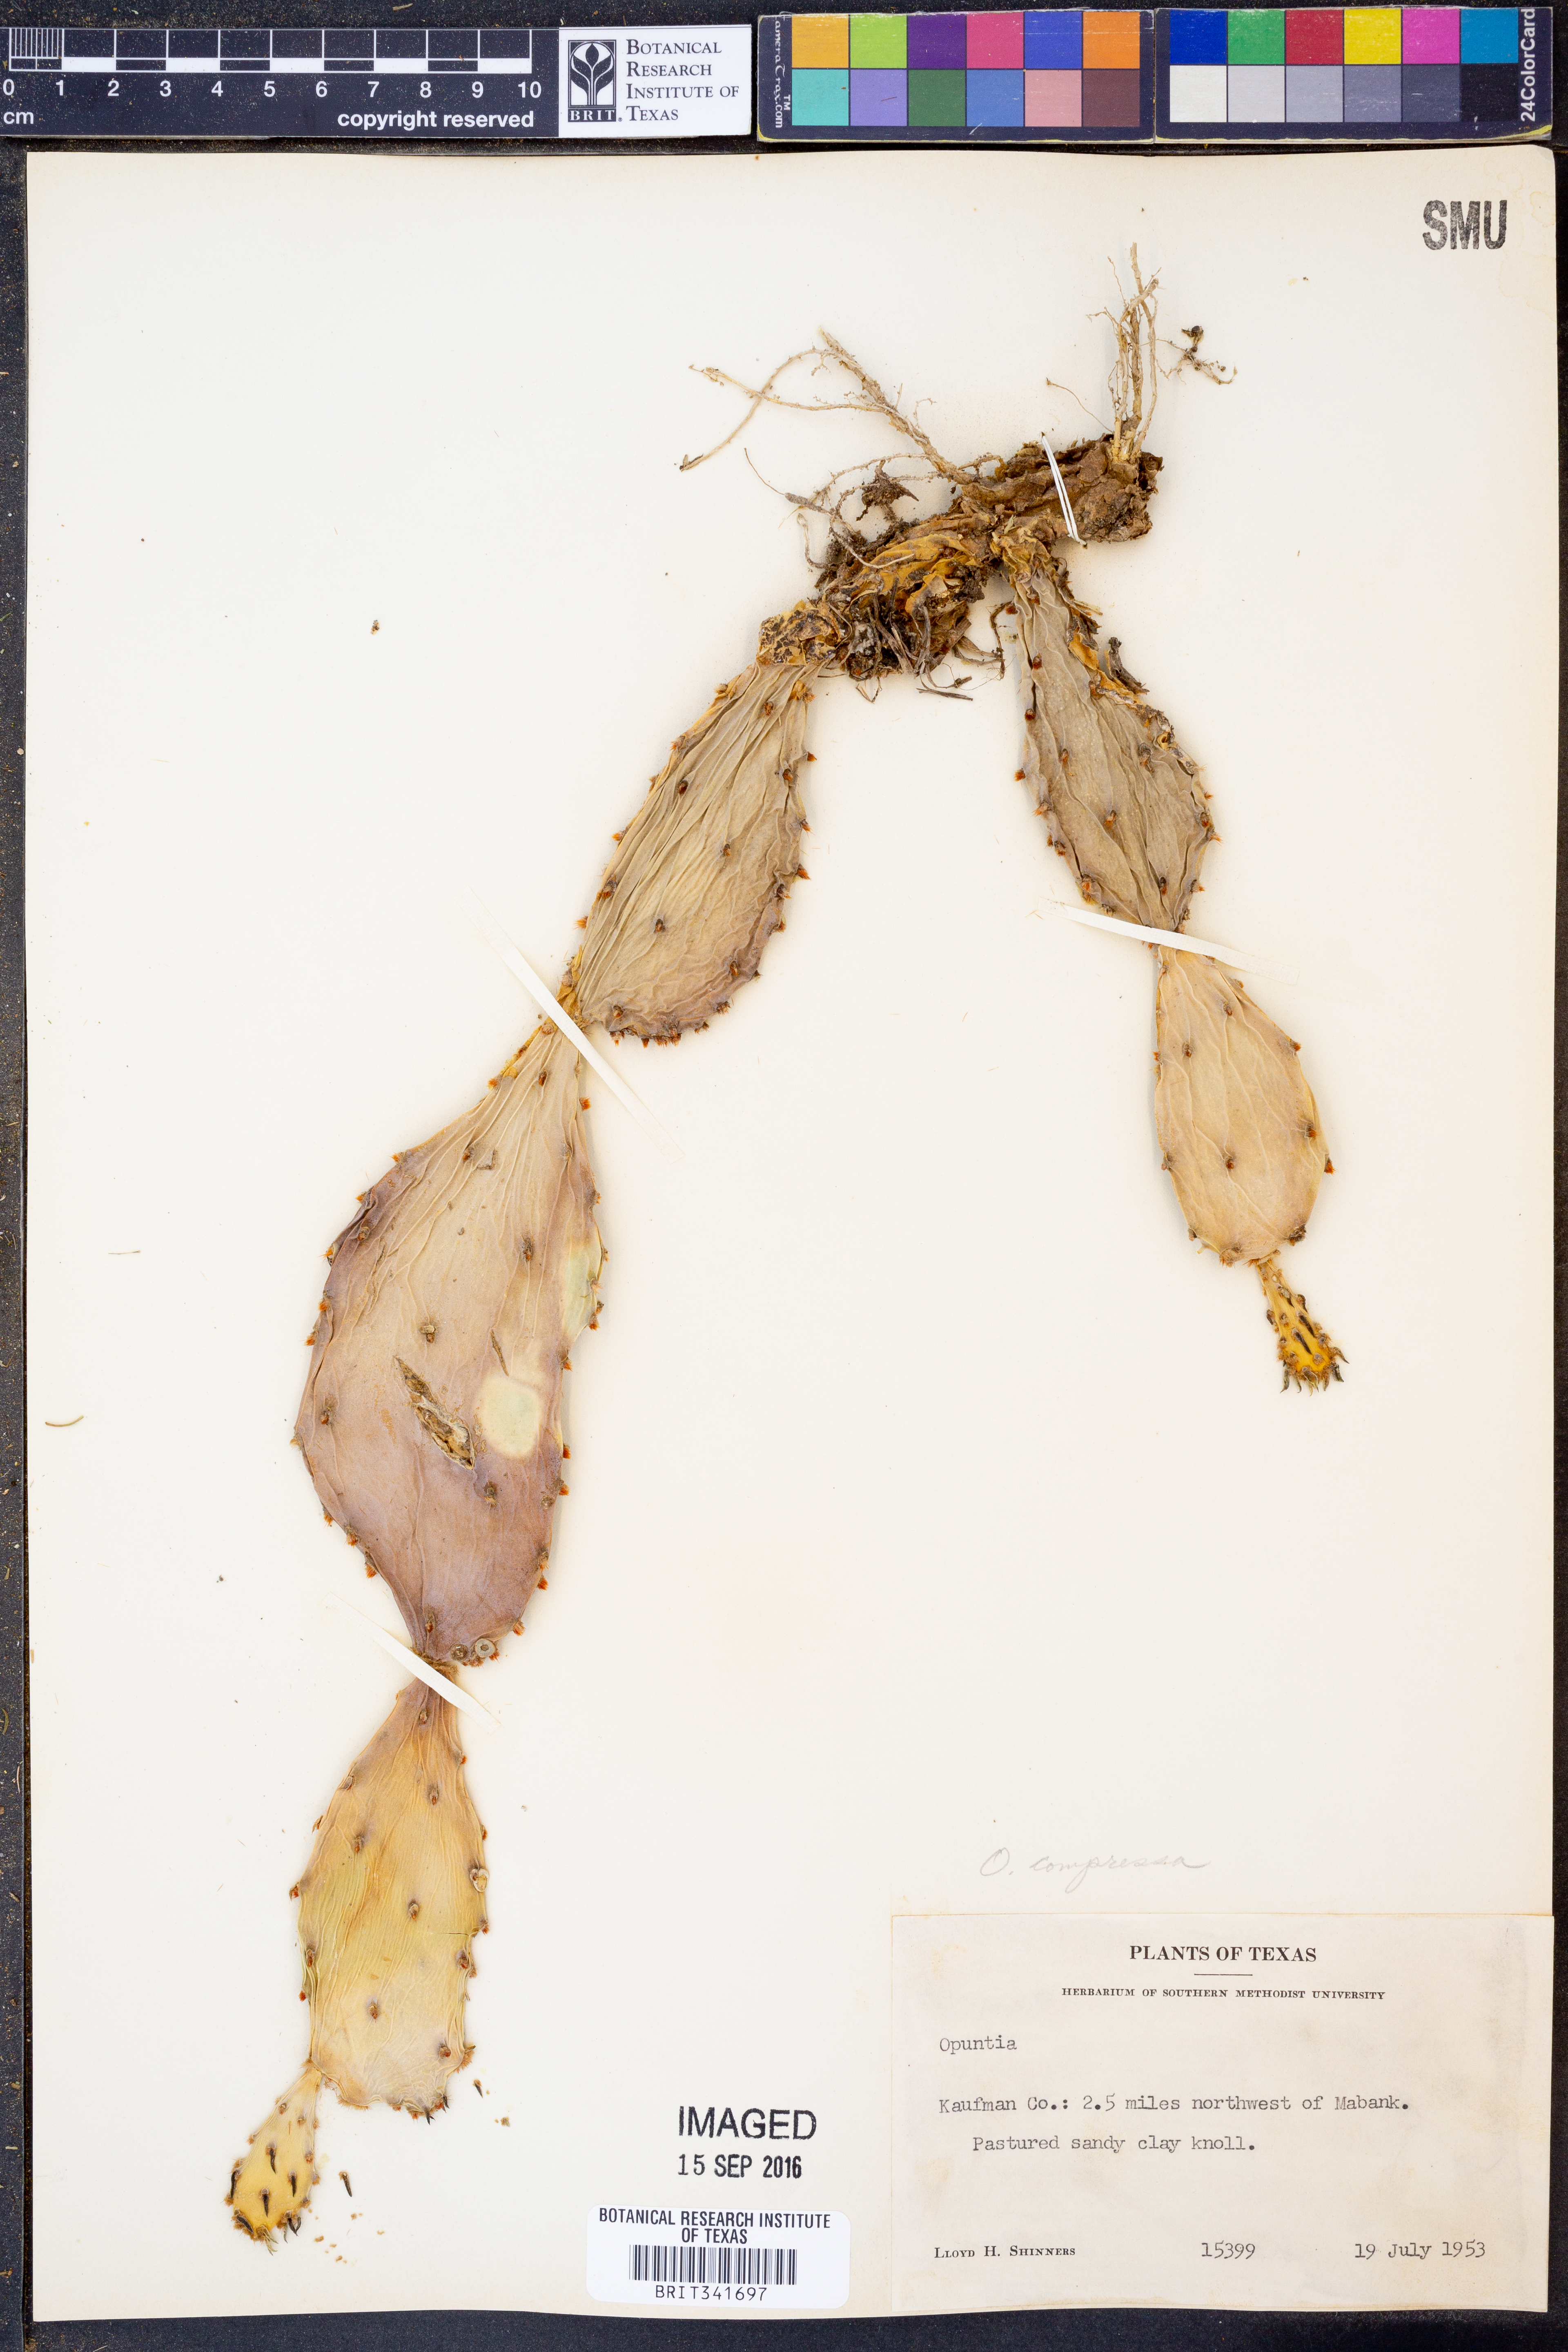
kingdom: Plantae
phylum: Tracheophyta
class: Magnoliopsida
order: Caryophyllales
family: Cactaceae
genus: Opuntia
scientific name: Opuntia humifusa
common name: Eastern prickly-pear
